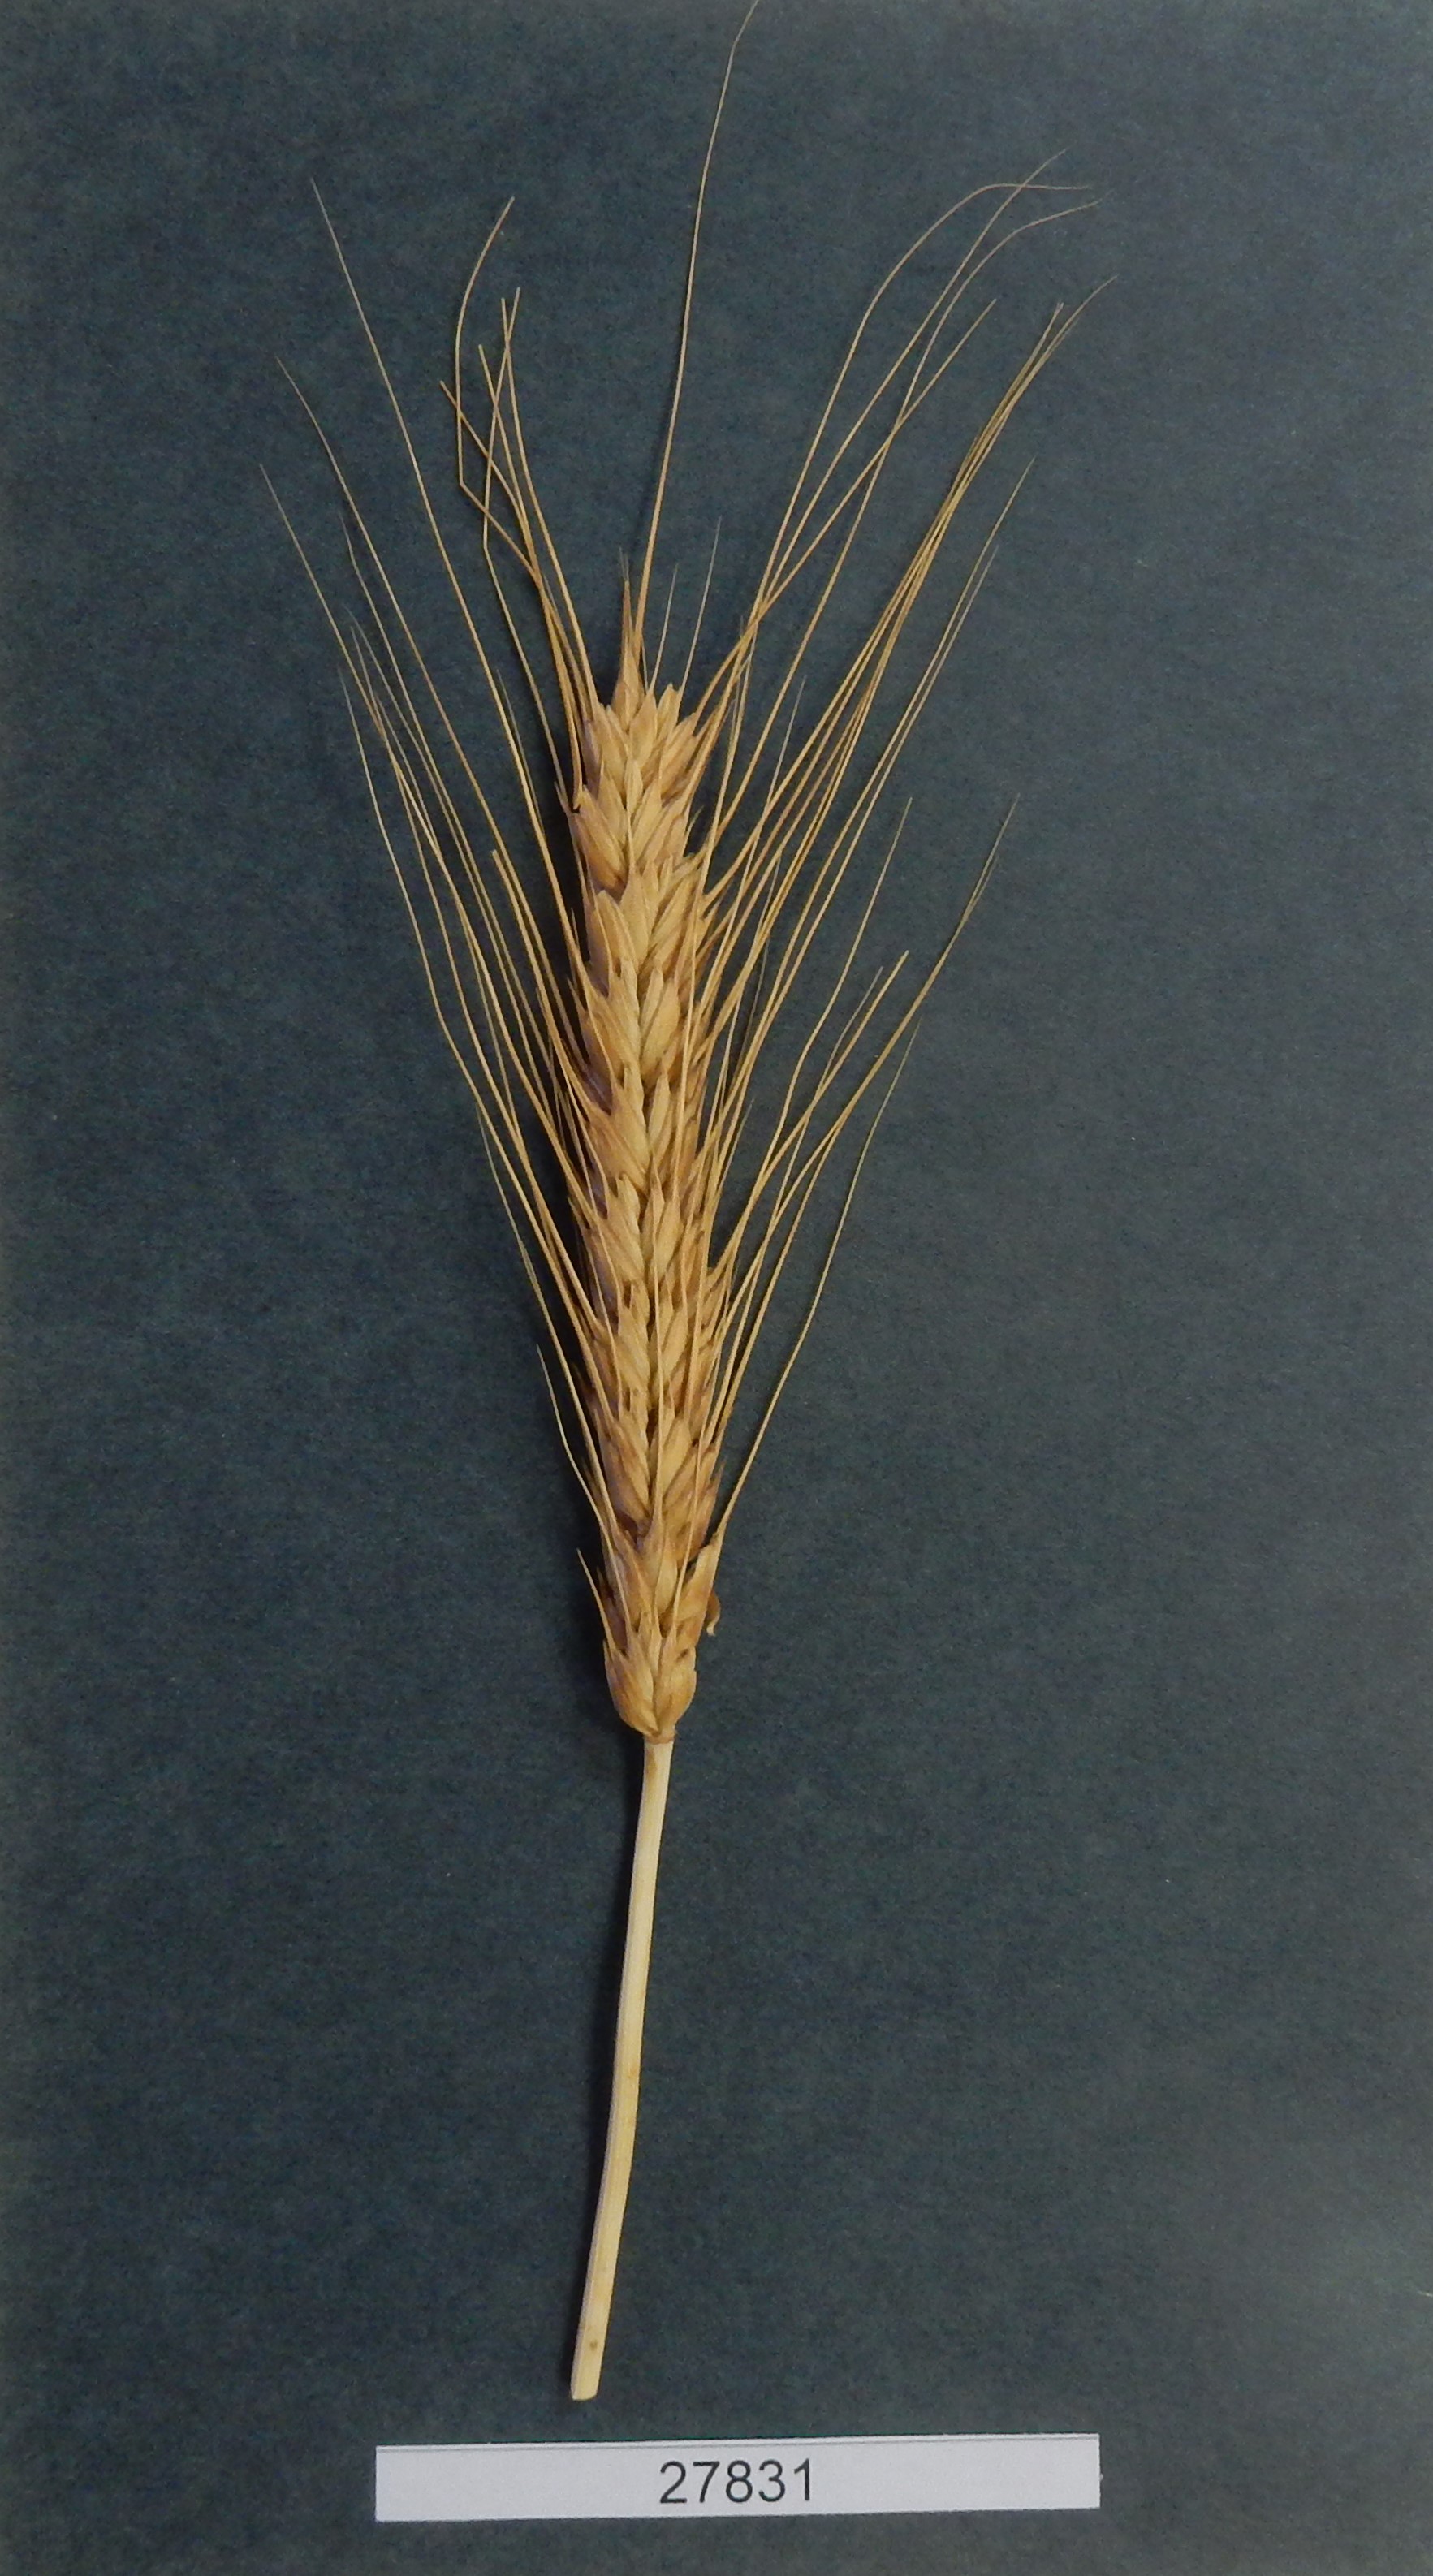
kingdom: Plantae
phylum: Tracheophyta
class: Liliopsida
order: Poales
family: Poaceae
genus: Triticum
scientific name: Triticum aestivum
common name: Common wheat
